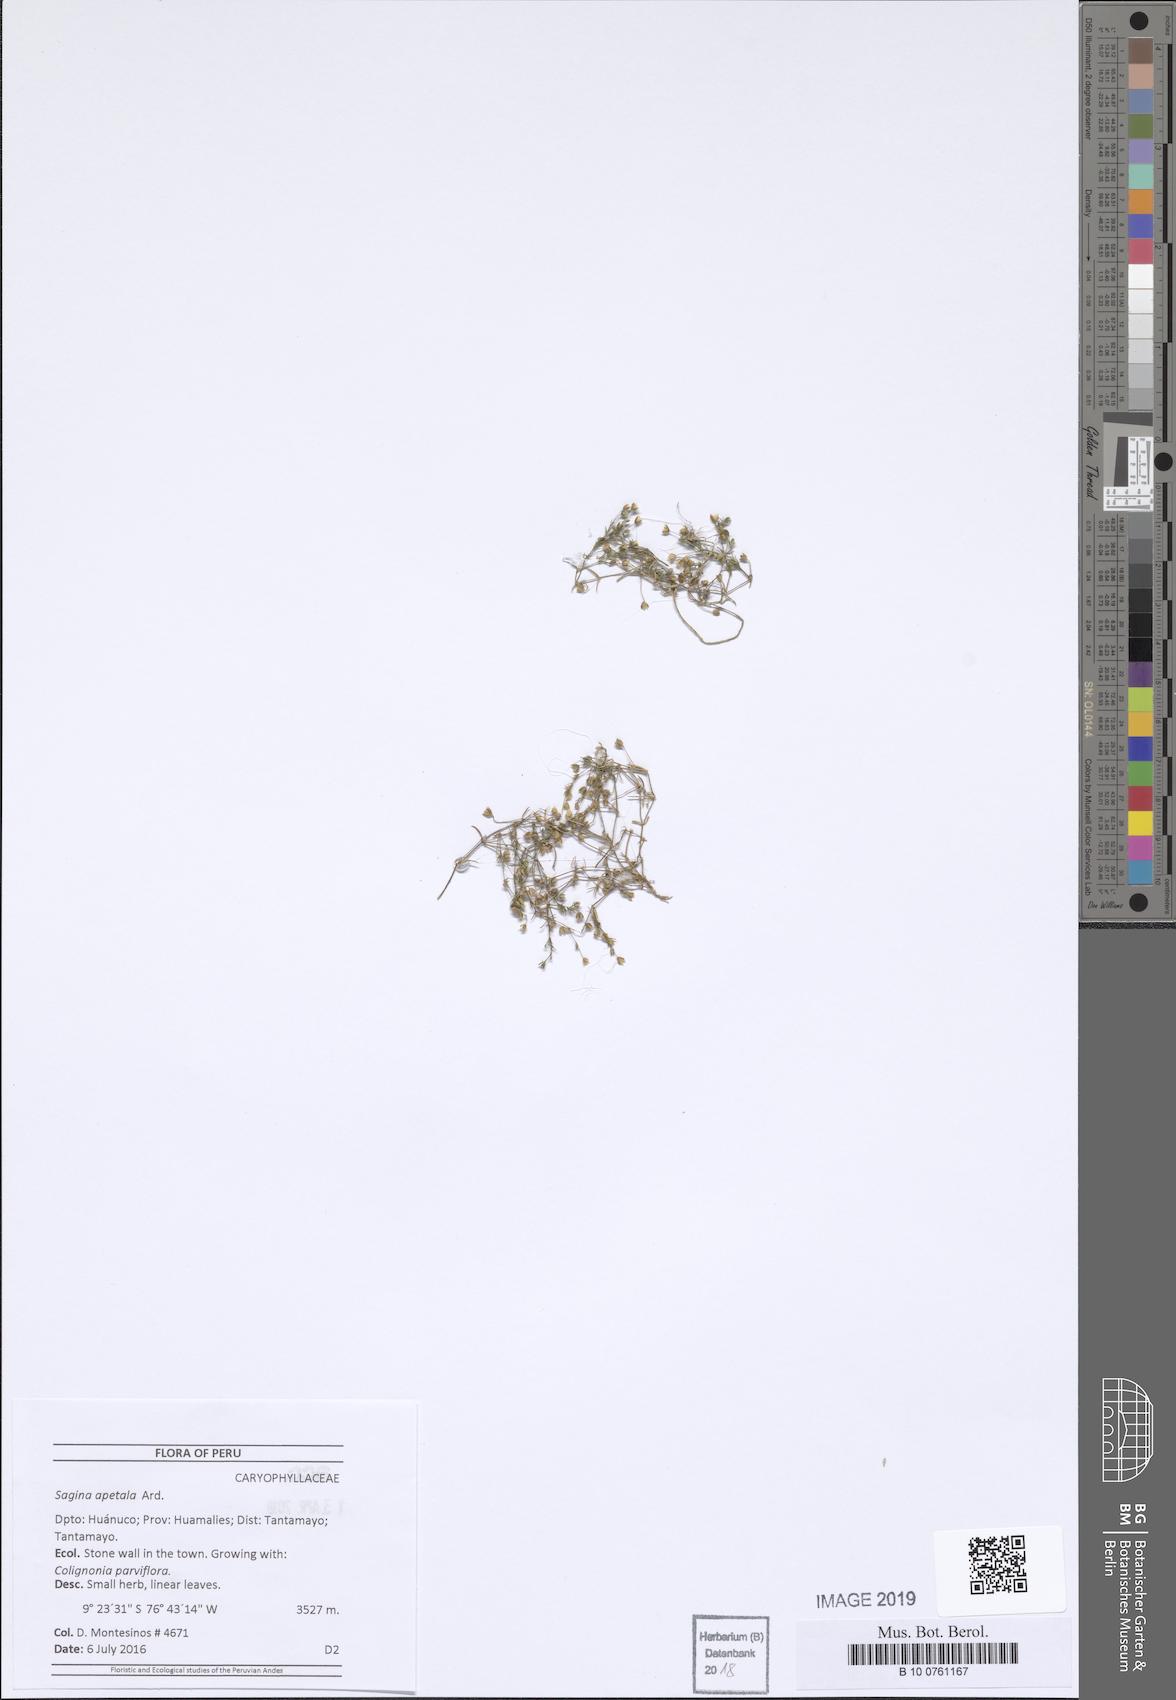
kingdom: Plantae
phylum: Tracheophyta
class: Magnoliopsida
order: Caryophyllales
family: Caryophyllaceae
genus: Sagina
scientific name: Sagina apetala
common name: Annual pearlwort
